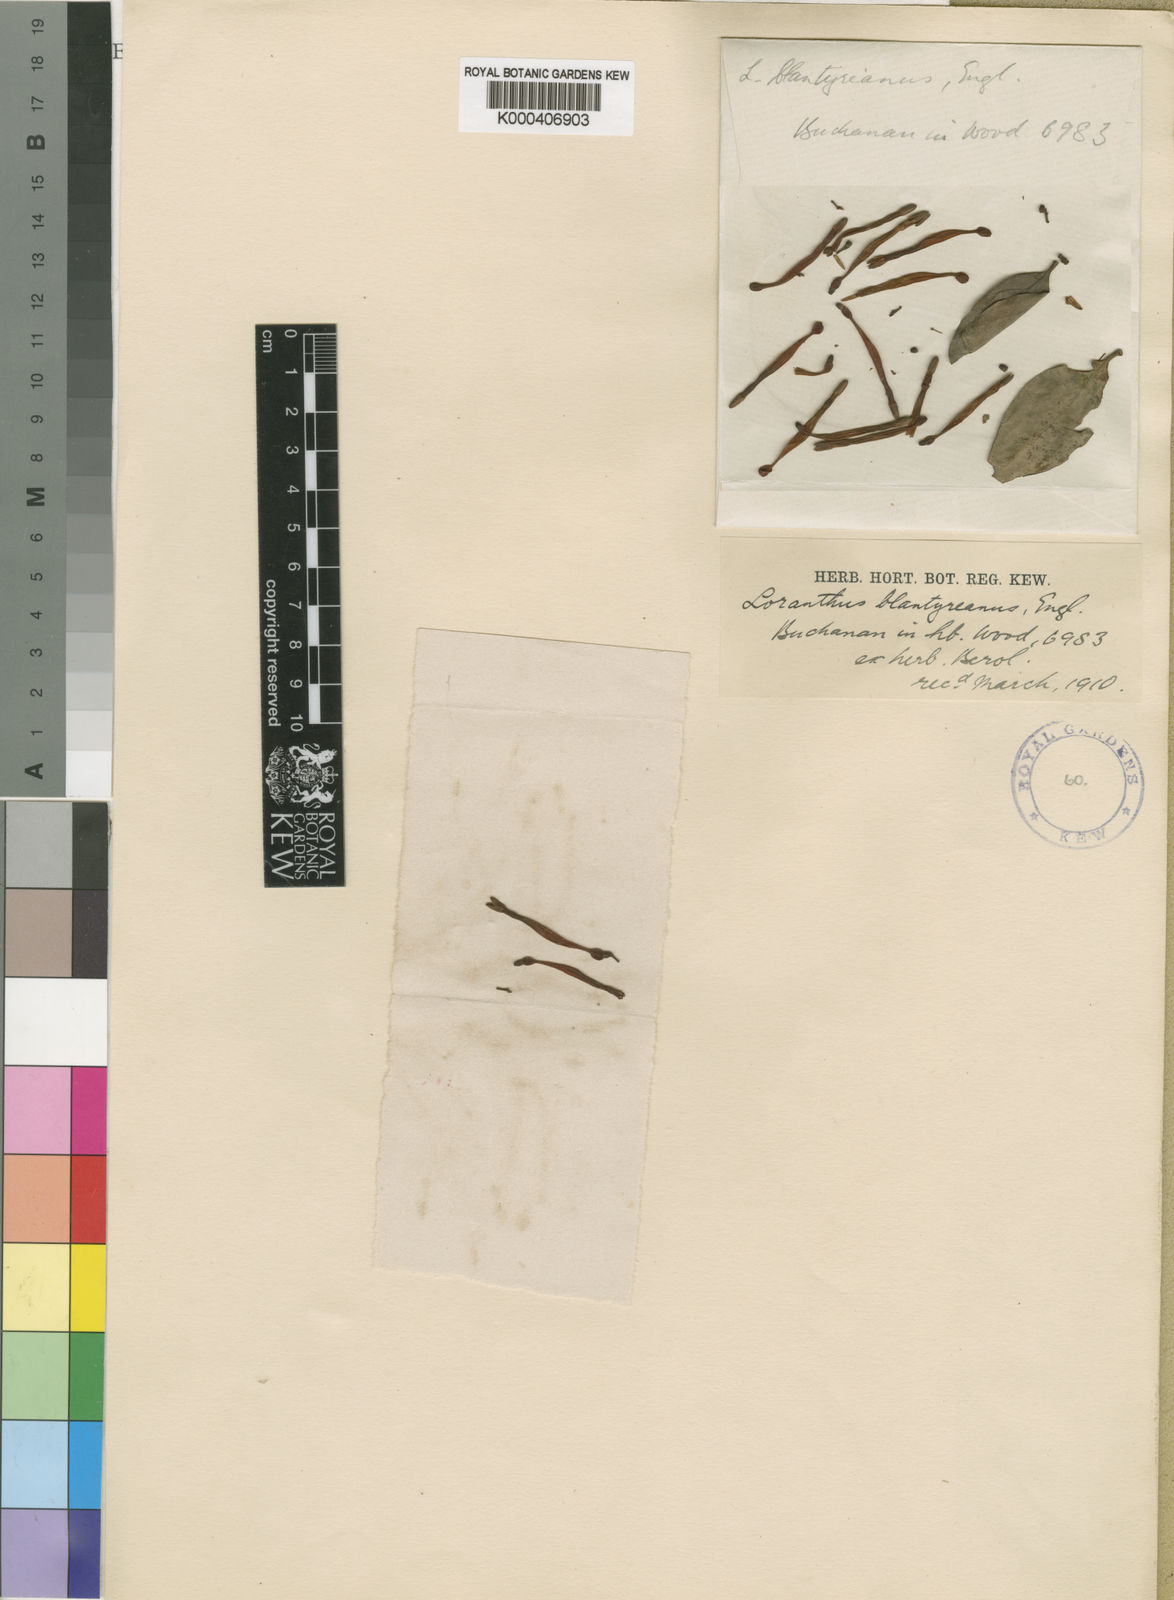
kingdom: Plantae
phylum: Tracheophyta
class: Magnoliopsida
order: Santalales
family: Loranthaceae
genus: Agelanthus
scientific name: Agelanthus pungu
